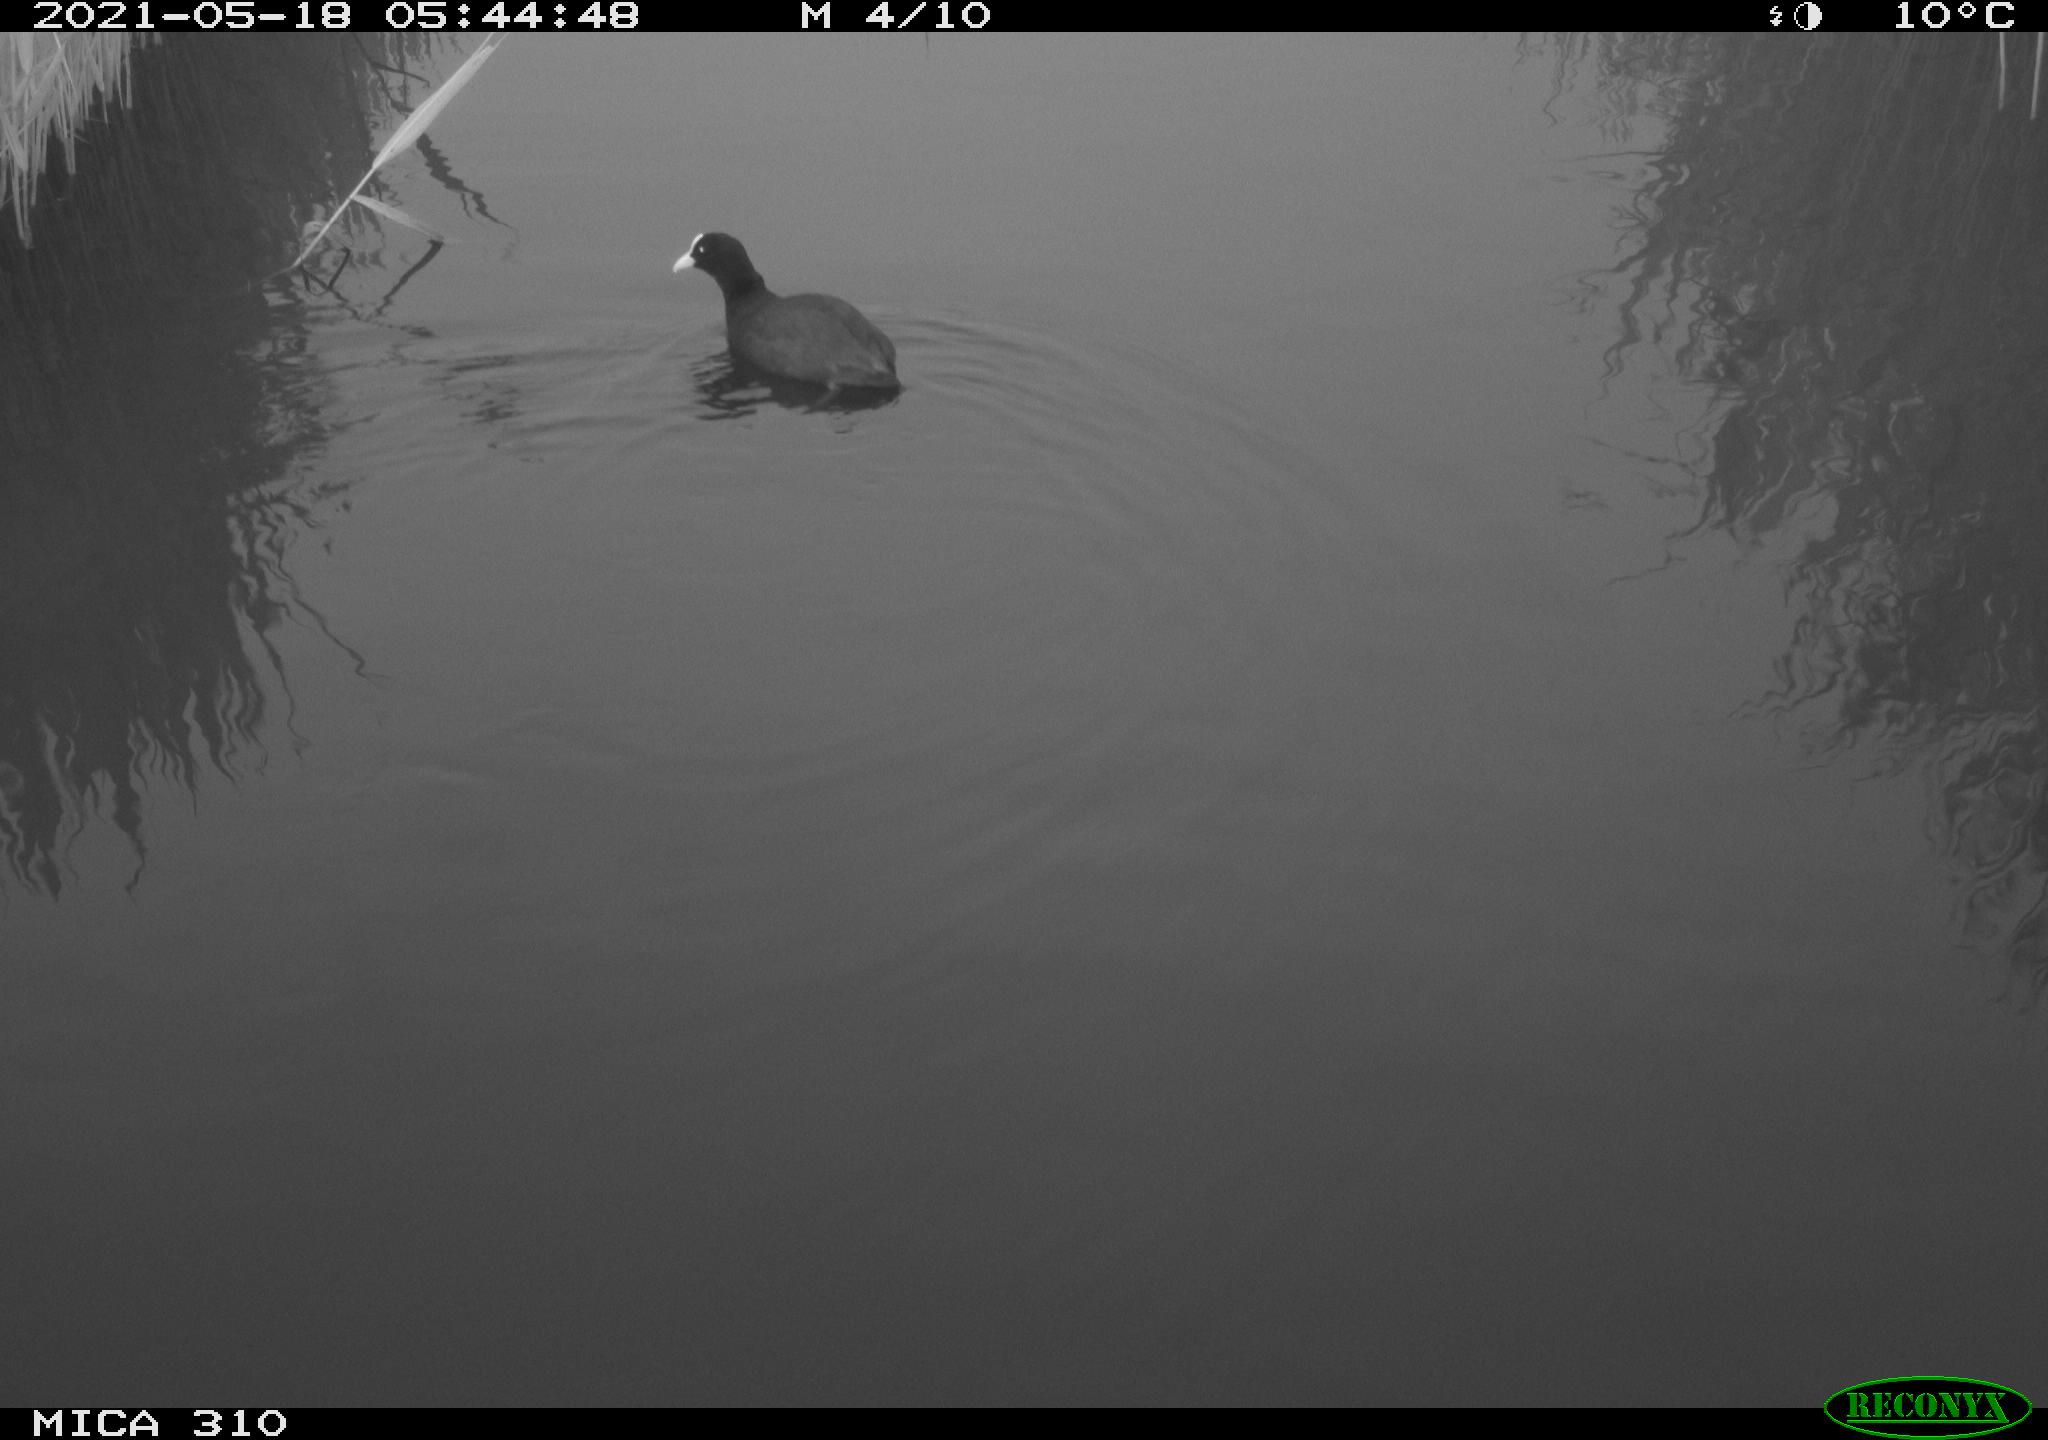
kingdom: Animalia
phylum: Chordata
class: Aves
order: Gruiformes
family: Rallidae
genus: Fulica
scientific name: Fulica atra
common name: Eurasian coot
